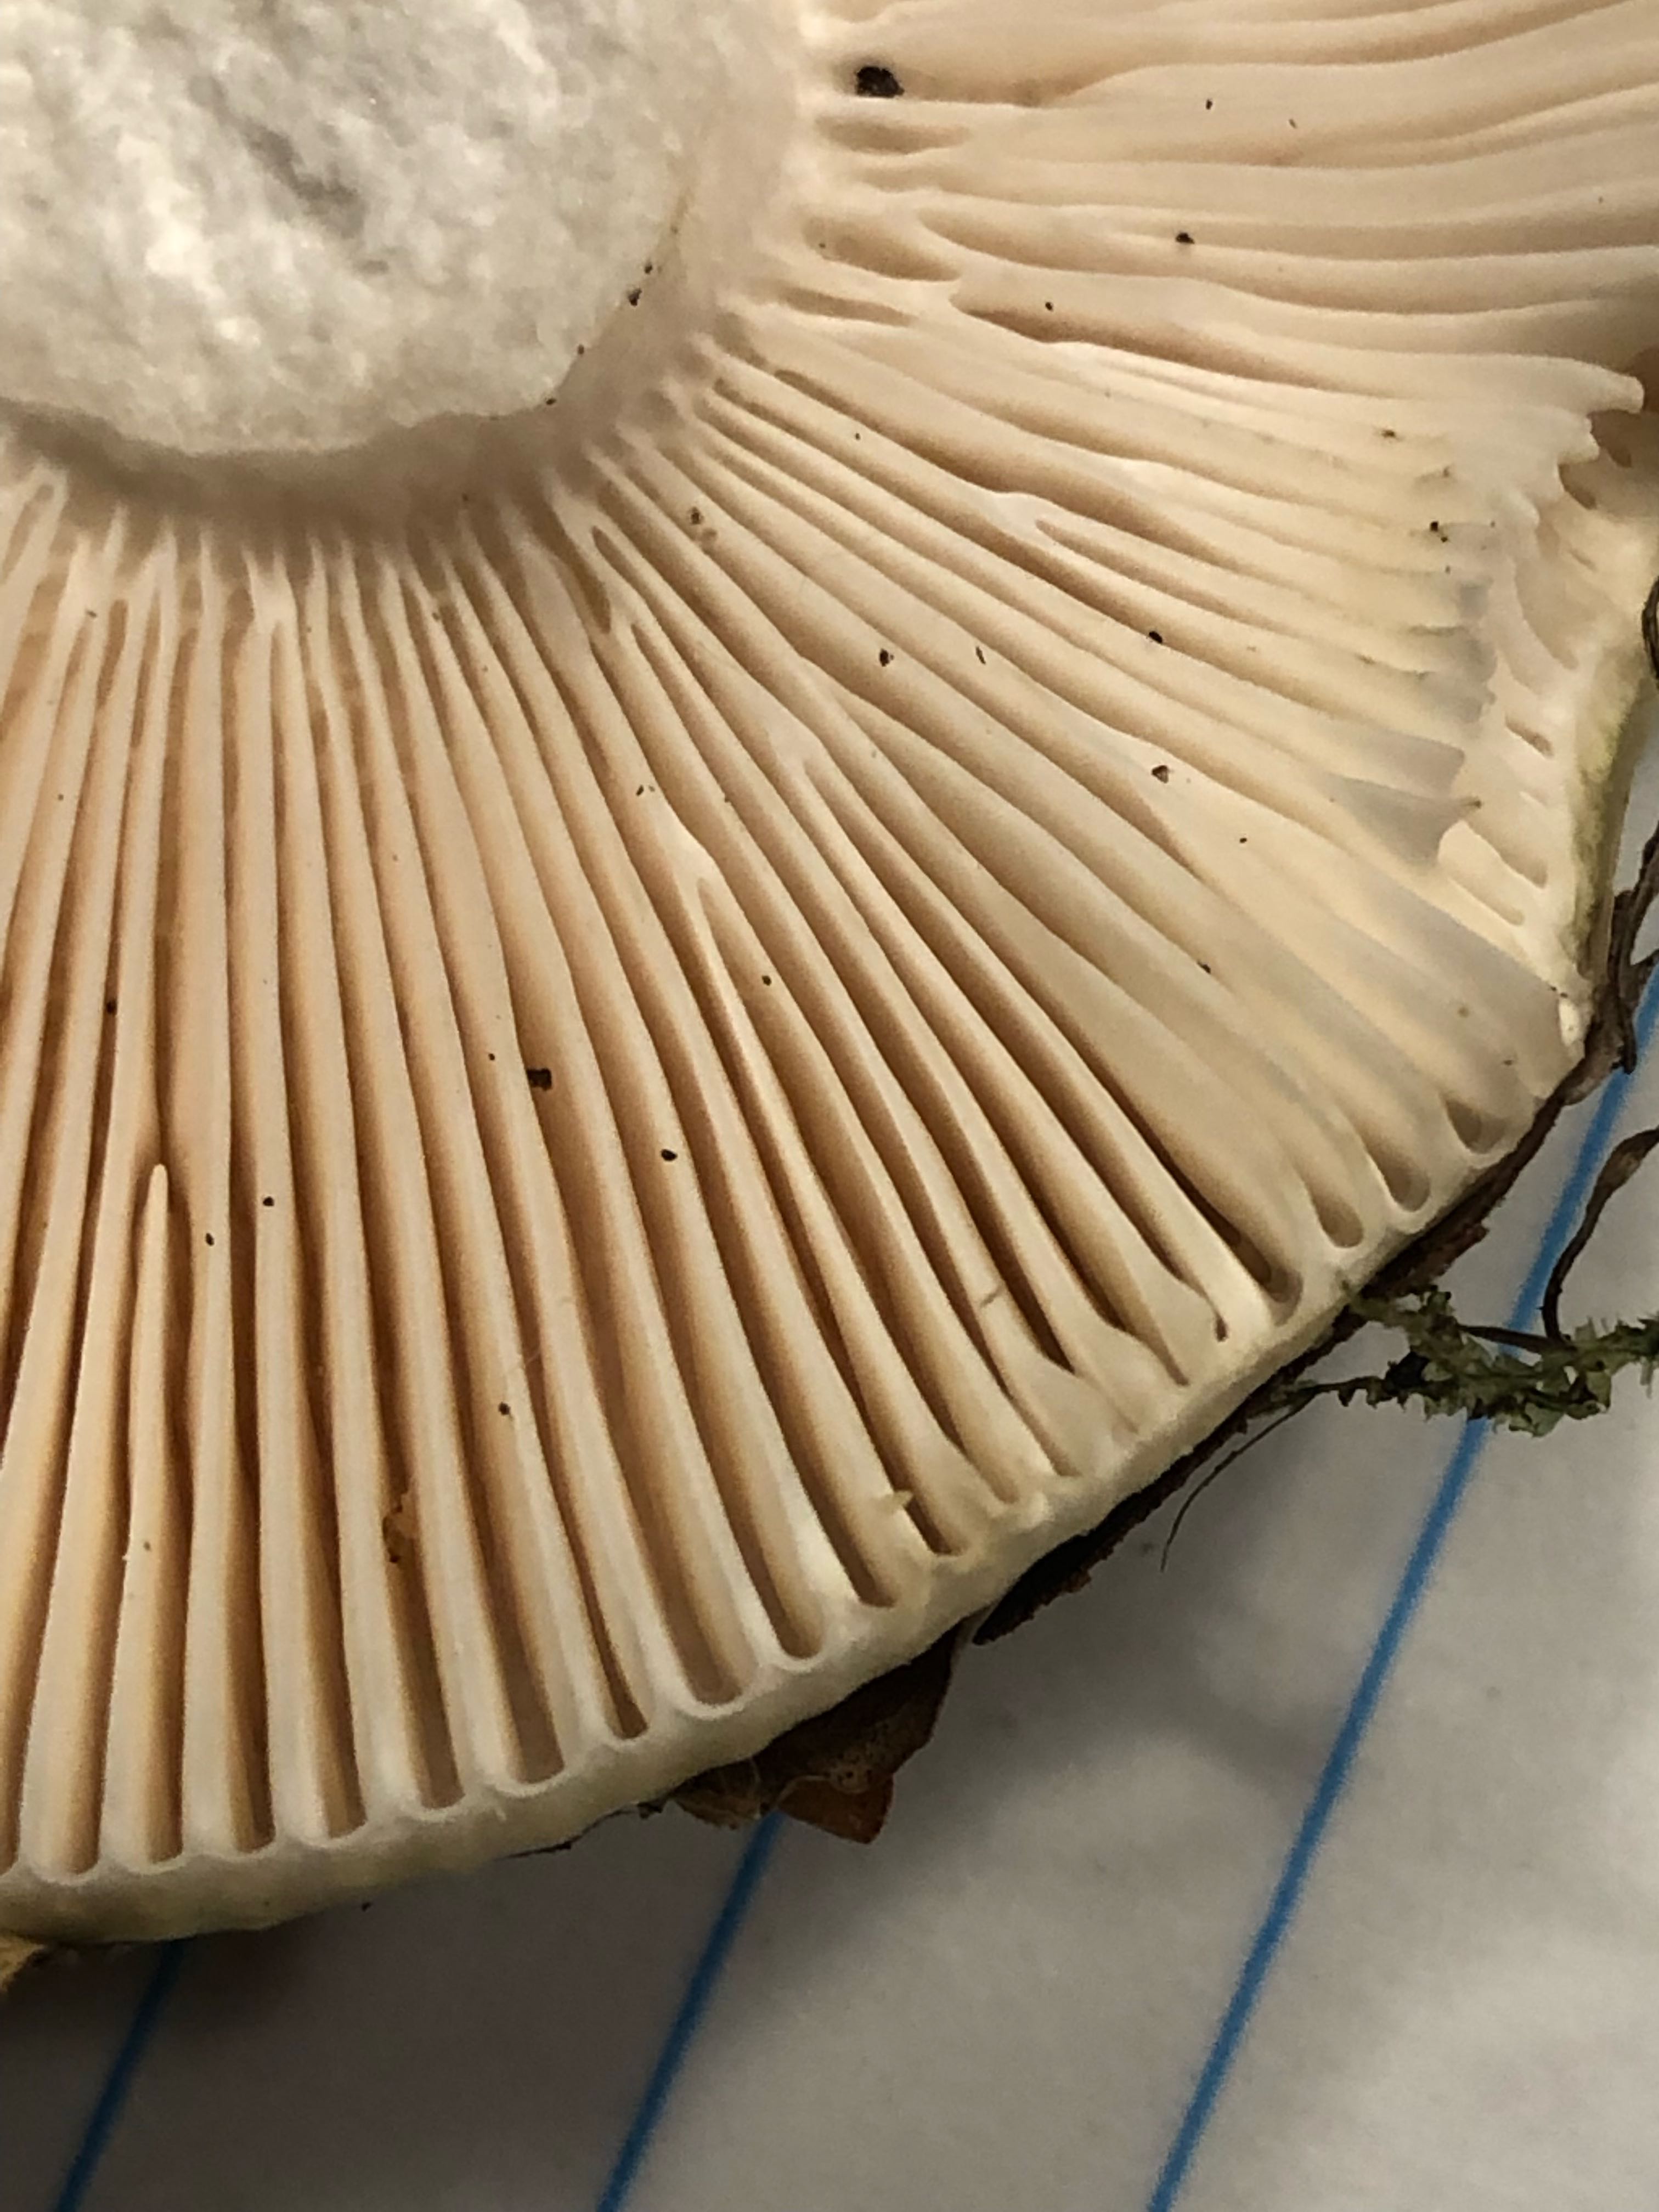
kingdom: Fungi
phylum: Basidiomycota
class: Agaricomycetes
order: Russulales
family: Russulaceae
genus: Russula
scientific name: Russula
